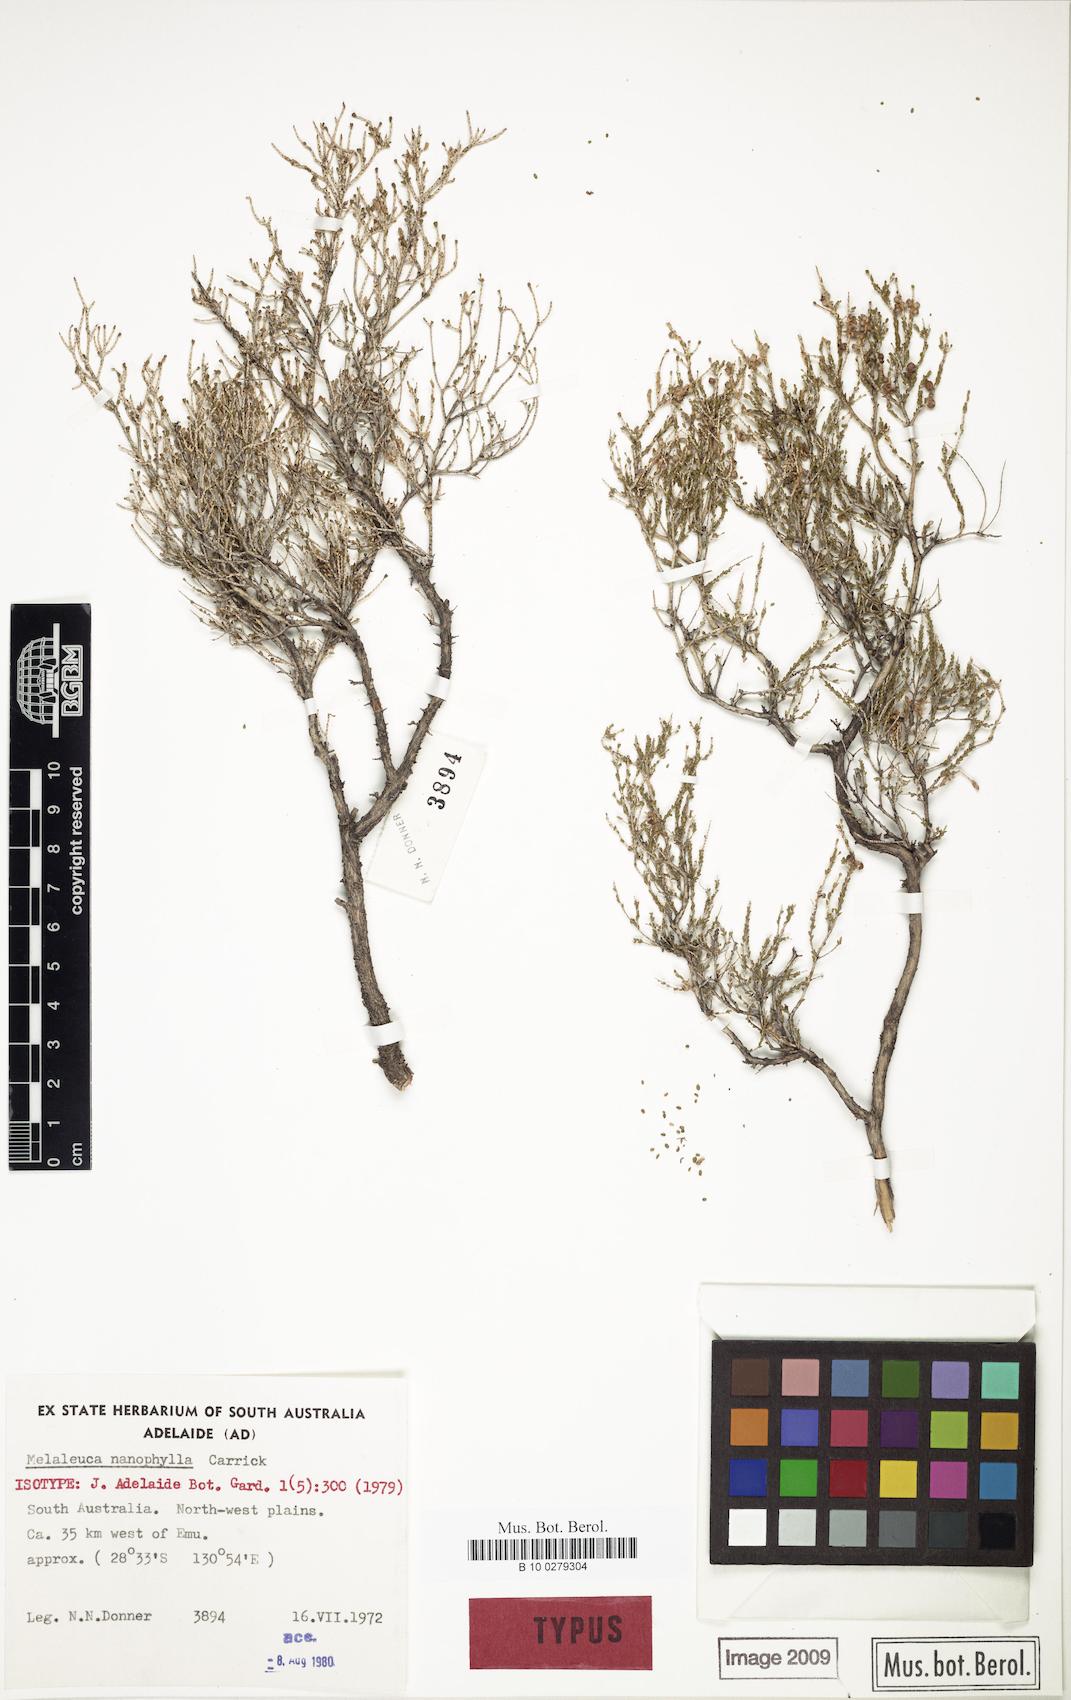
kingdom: Plantae
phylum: Tracheophyta
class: Magnoliopsida
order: Myrtales
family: Myrtaceae
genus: Melaleuca
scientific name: Melaleuca nanophylla
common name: Dwarf-leaved honey-myrtle
